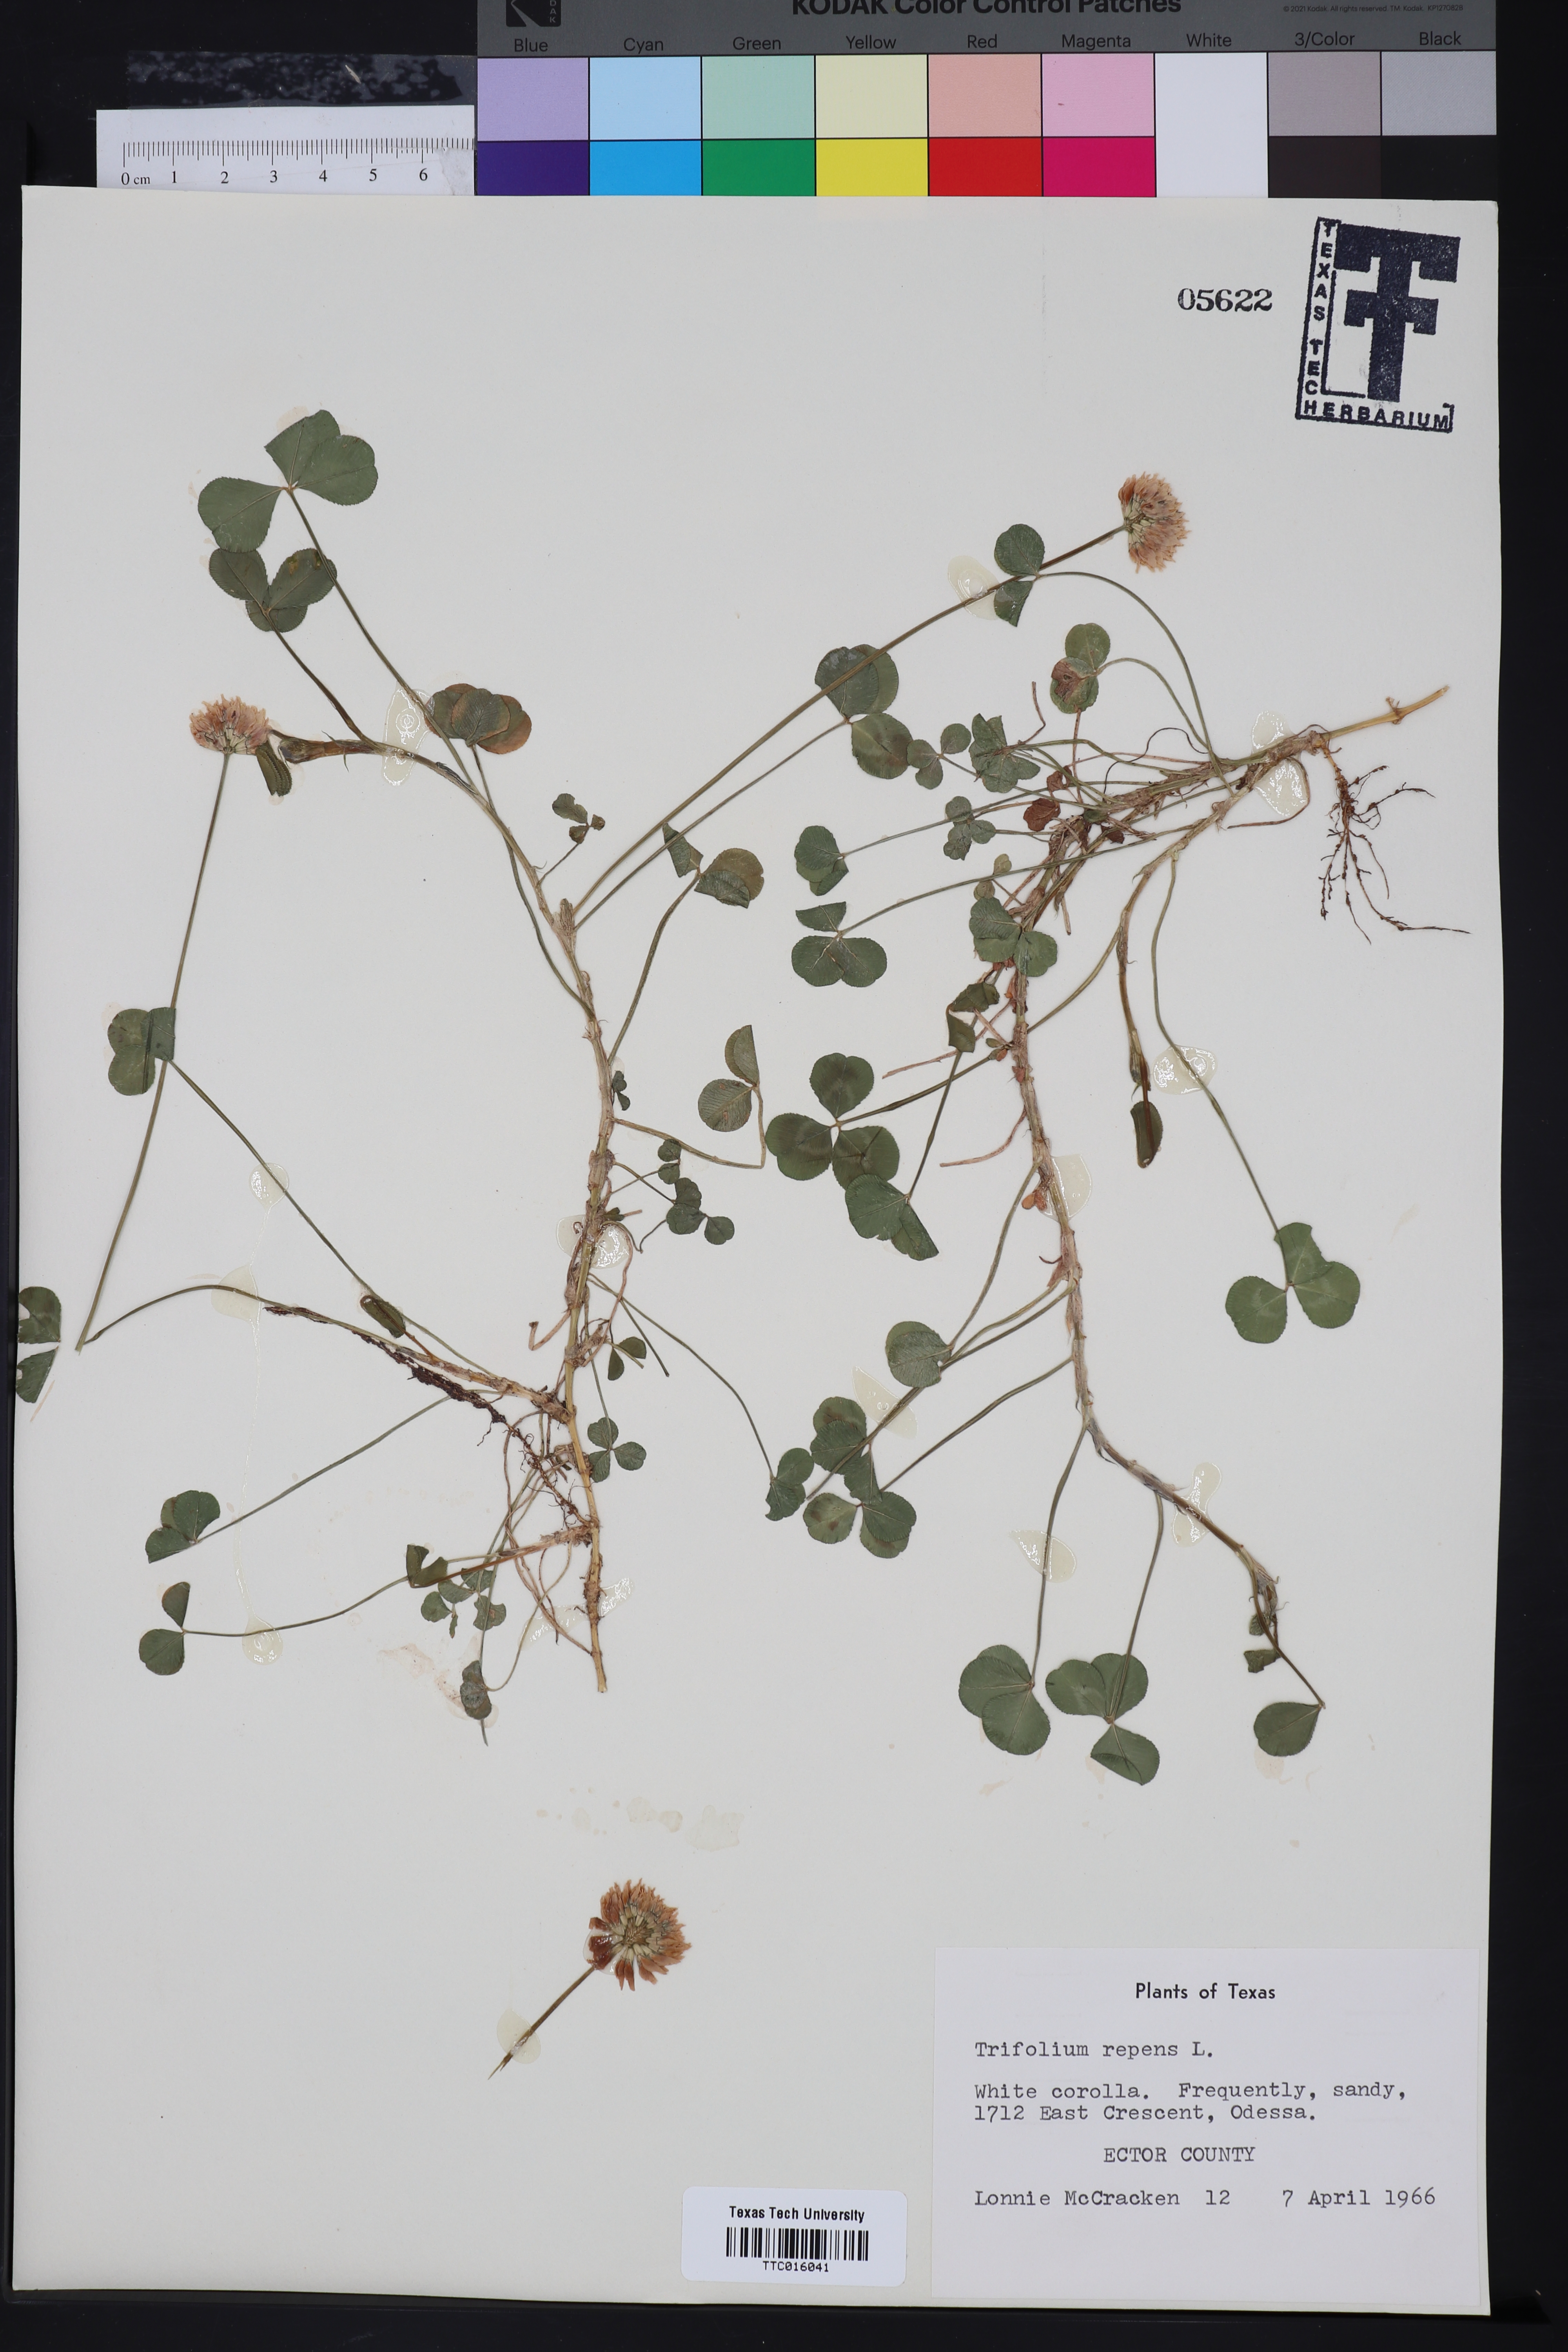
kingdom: Plantae
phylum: Tracheophyta
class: Magnoliopsida
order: Fabales
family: Fabaceae
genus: Trifolium
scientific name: Trifolium repens
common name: White clover
